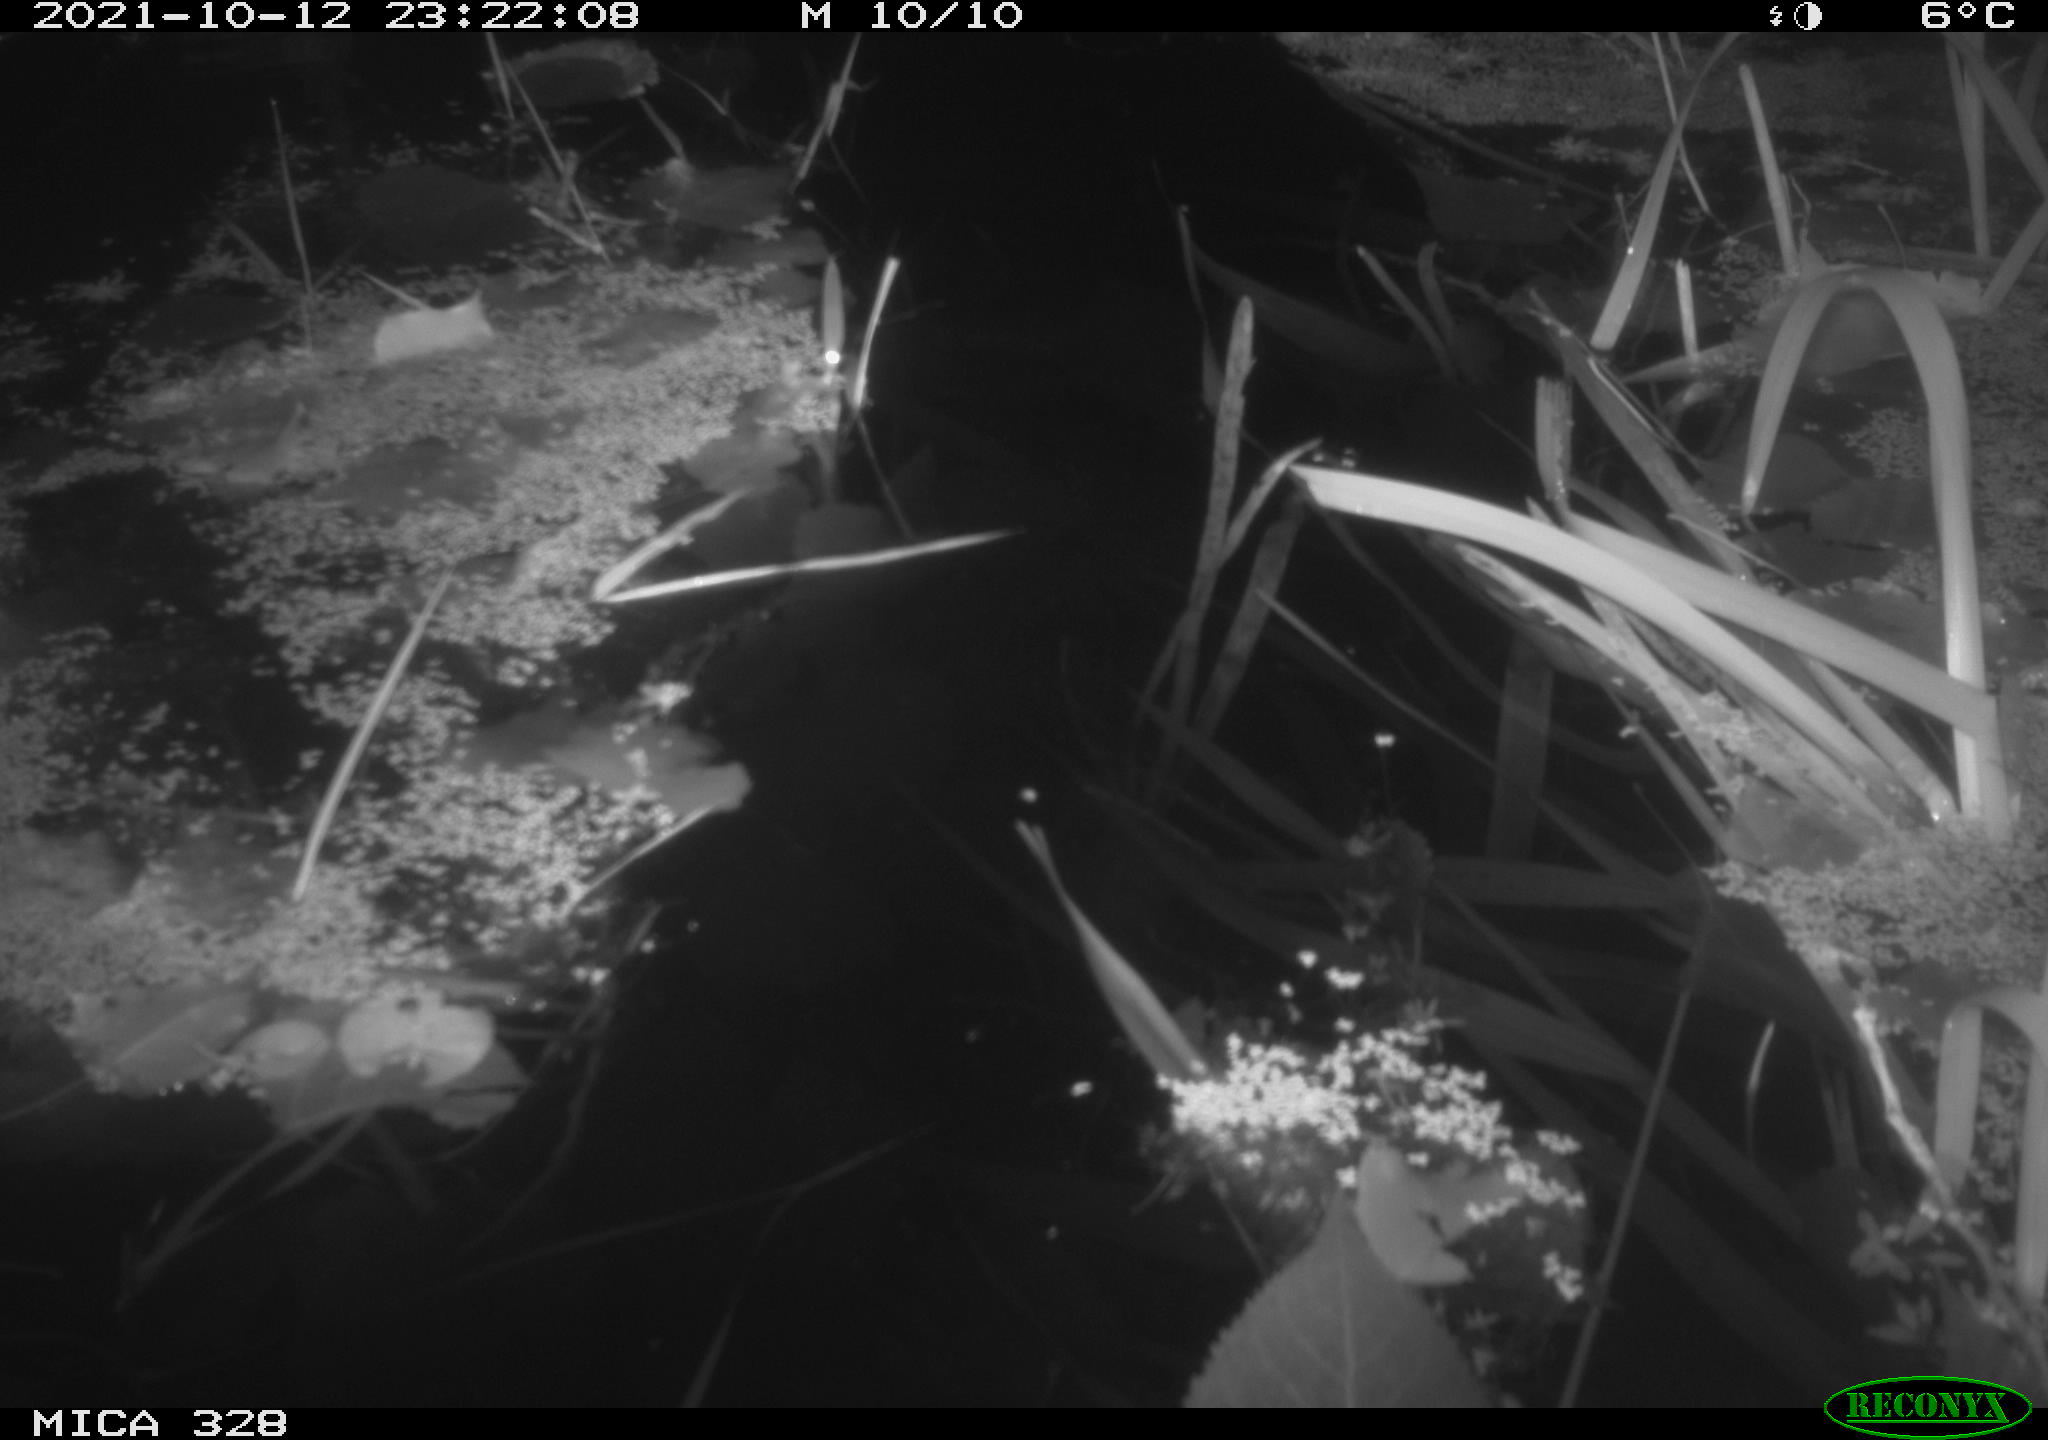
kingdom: Animalia
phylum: Chordata
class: Mammalia
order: Rodentia
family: Cricetidae
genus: Ondatra
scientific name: Ondatra zibethicus
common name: Muskrat
